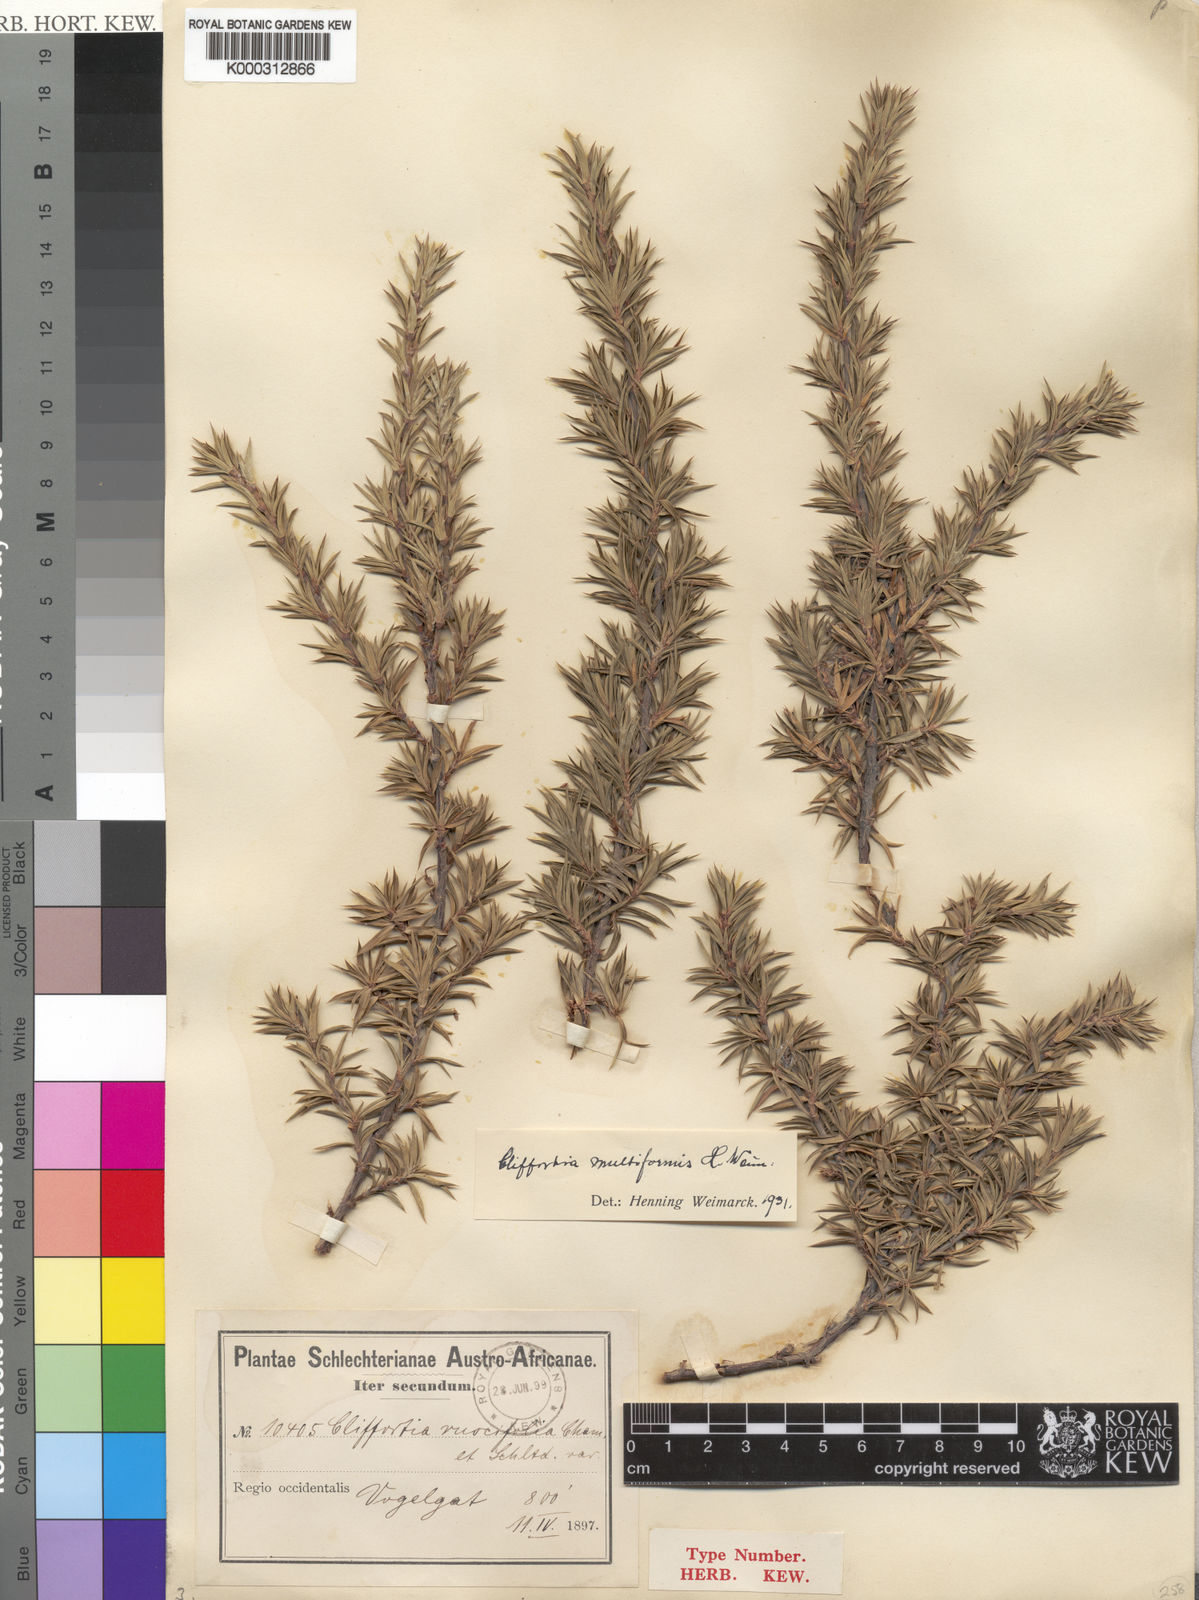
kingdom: Plantae
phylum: Tracheophyta
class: Magnoliopsida
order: Rosales
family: Rosaceae
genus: Cliffortia
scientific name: Cliffortia
